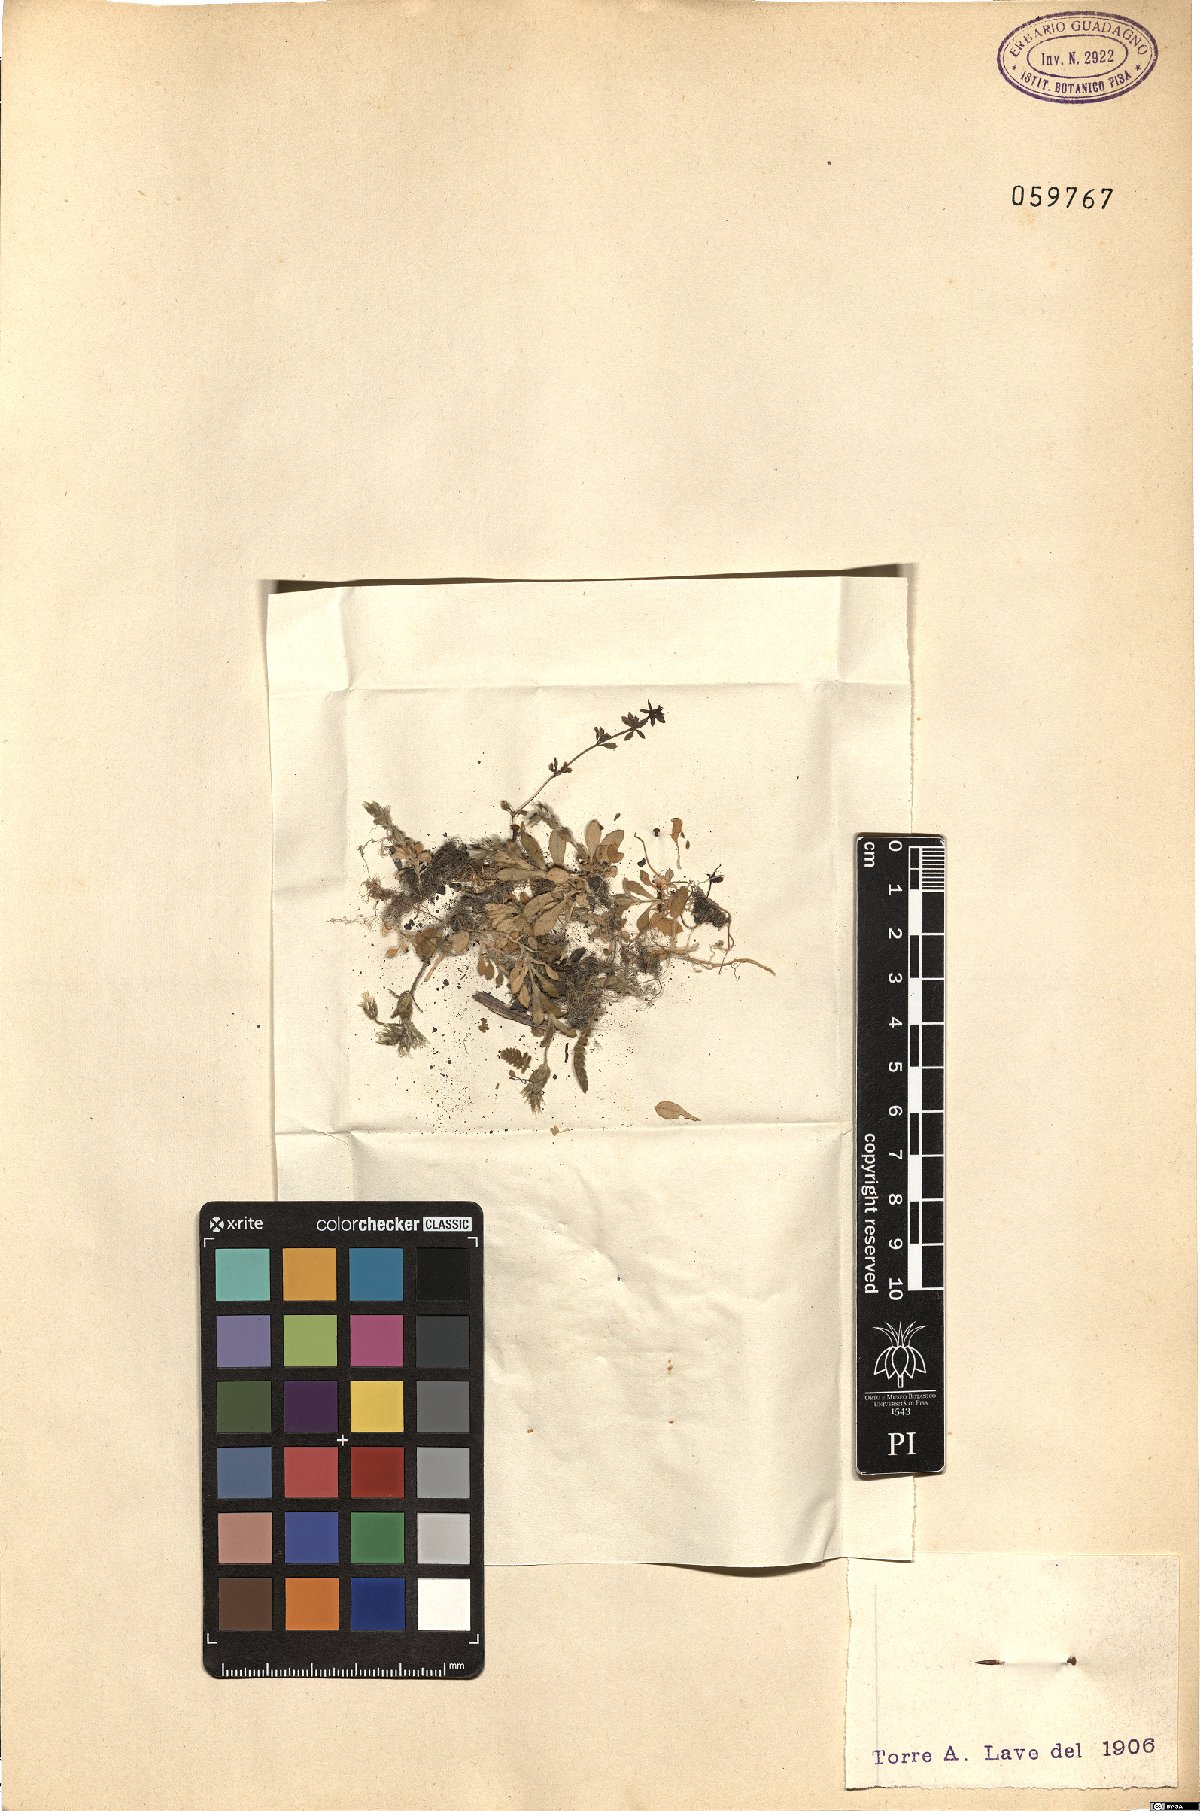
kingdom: Plantae
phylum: Tracheophyta
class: Magnoliopsida
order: Caryophyllales
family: Caryophyllaceae
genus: Cerastium
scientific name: Cerastium
